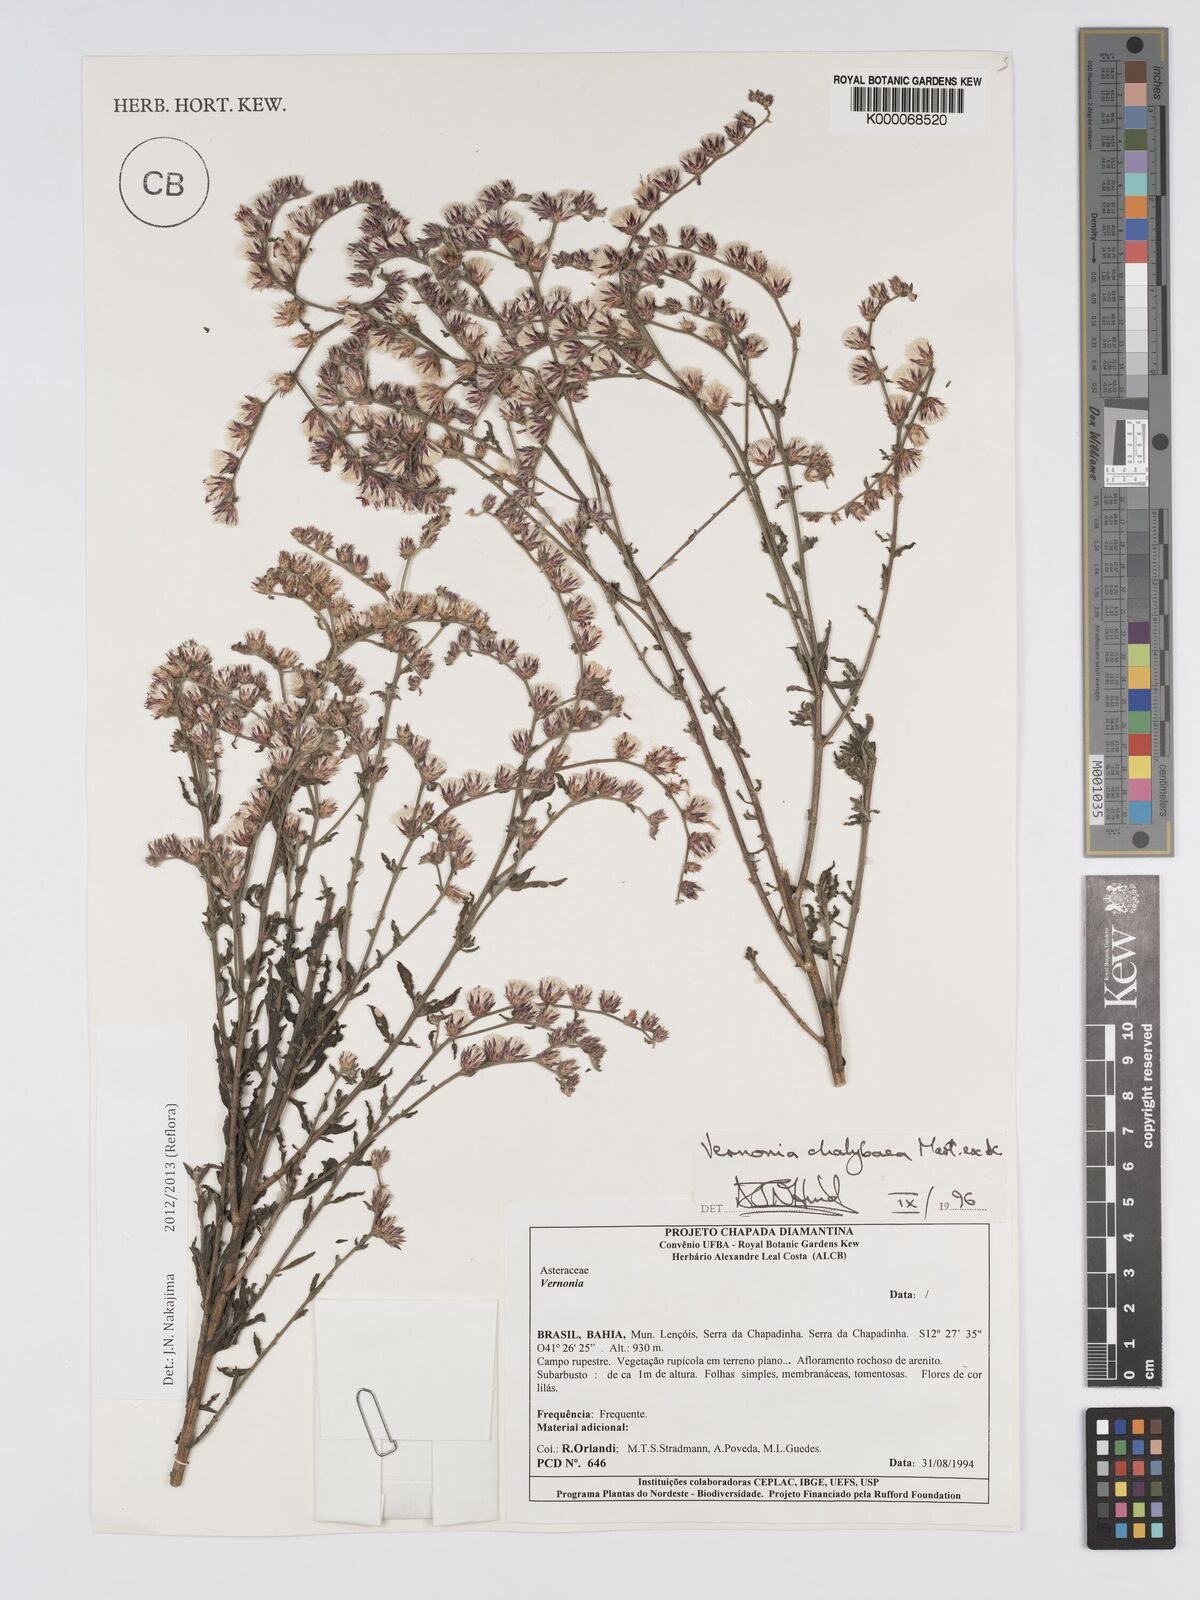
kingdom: Plantae
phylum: Tracheophyta
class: Magnoliopsida
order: Asterales
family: Asteraceae
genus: Lepidaploa
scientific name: Lepidaploa chalybaea
